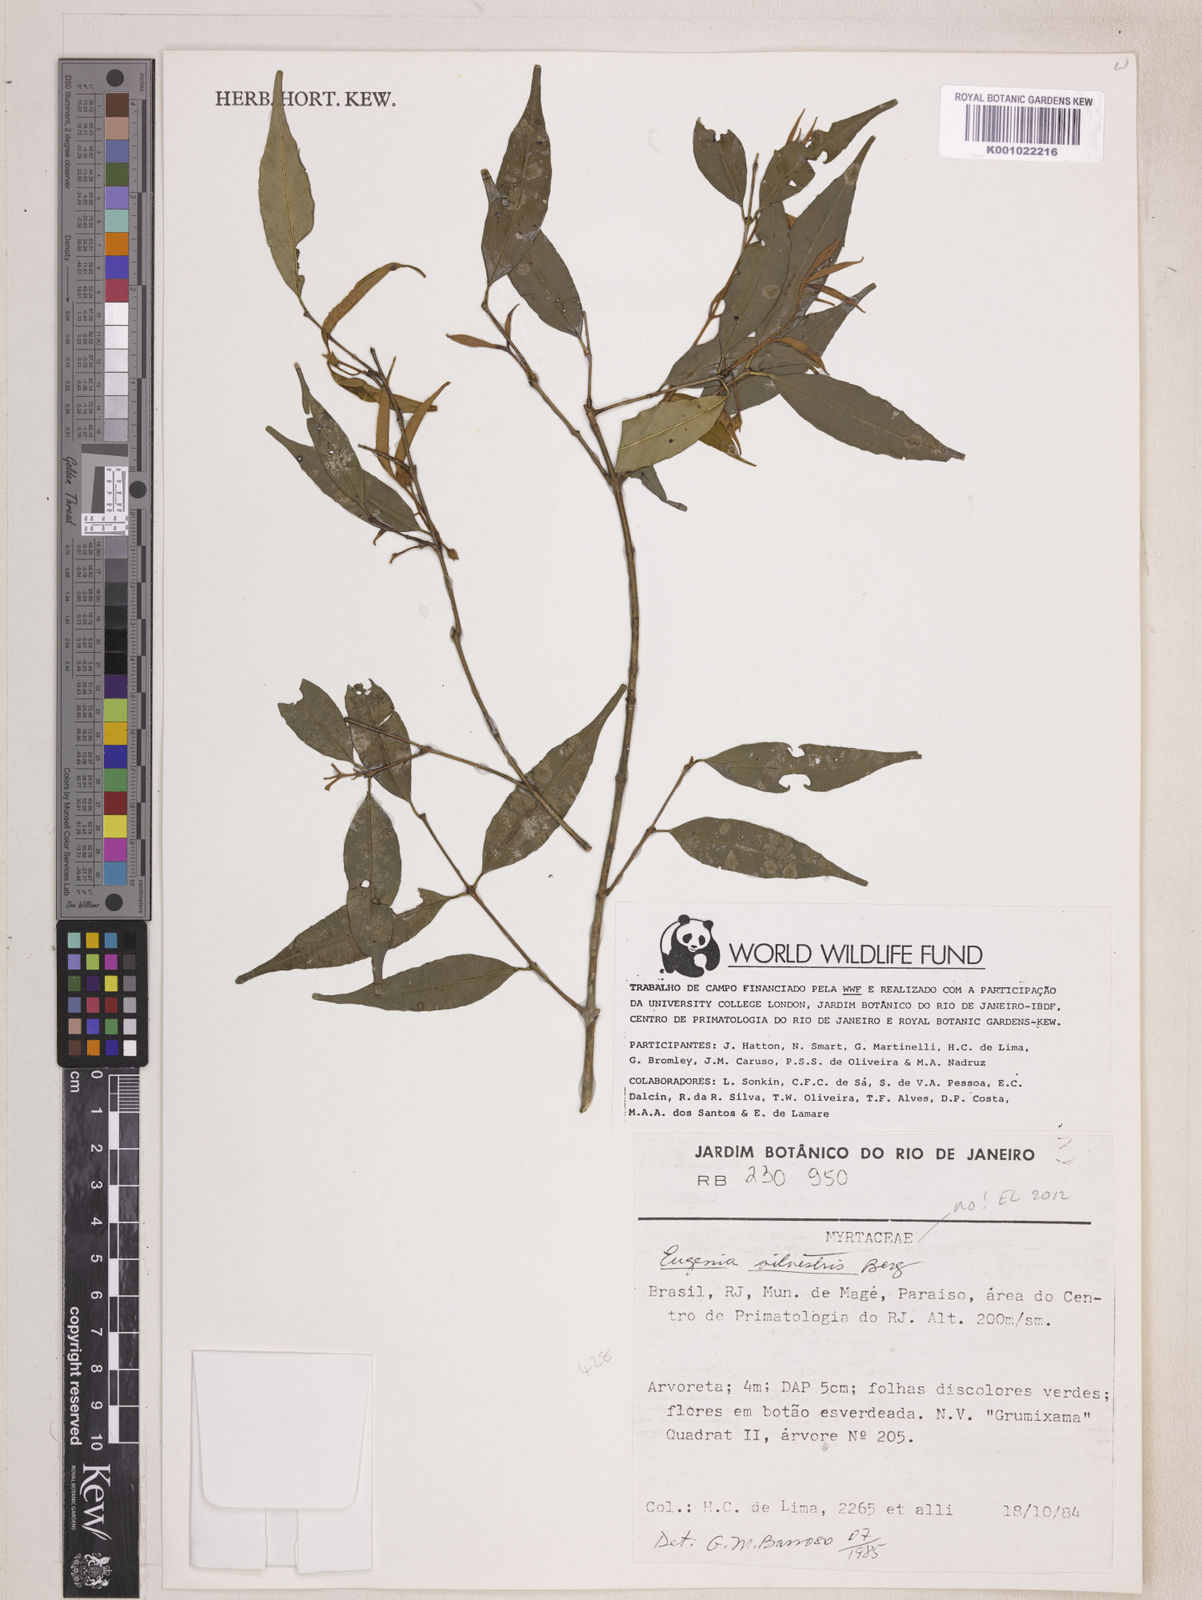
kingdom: Plantae
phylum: Tracheophyta
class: Magnoliopsida
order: Myrtales
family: Myrtaceae
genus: Eugenia
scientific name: Eugenia cuprea
